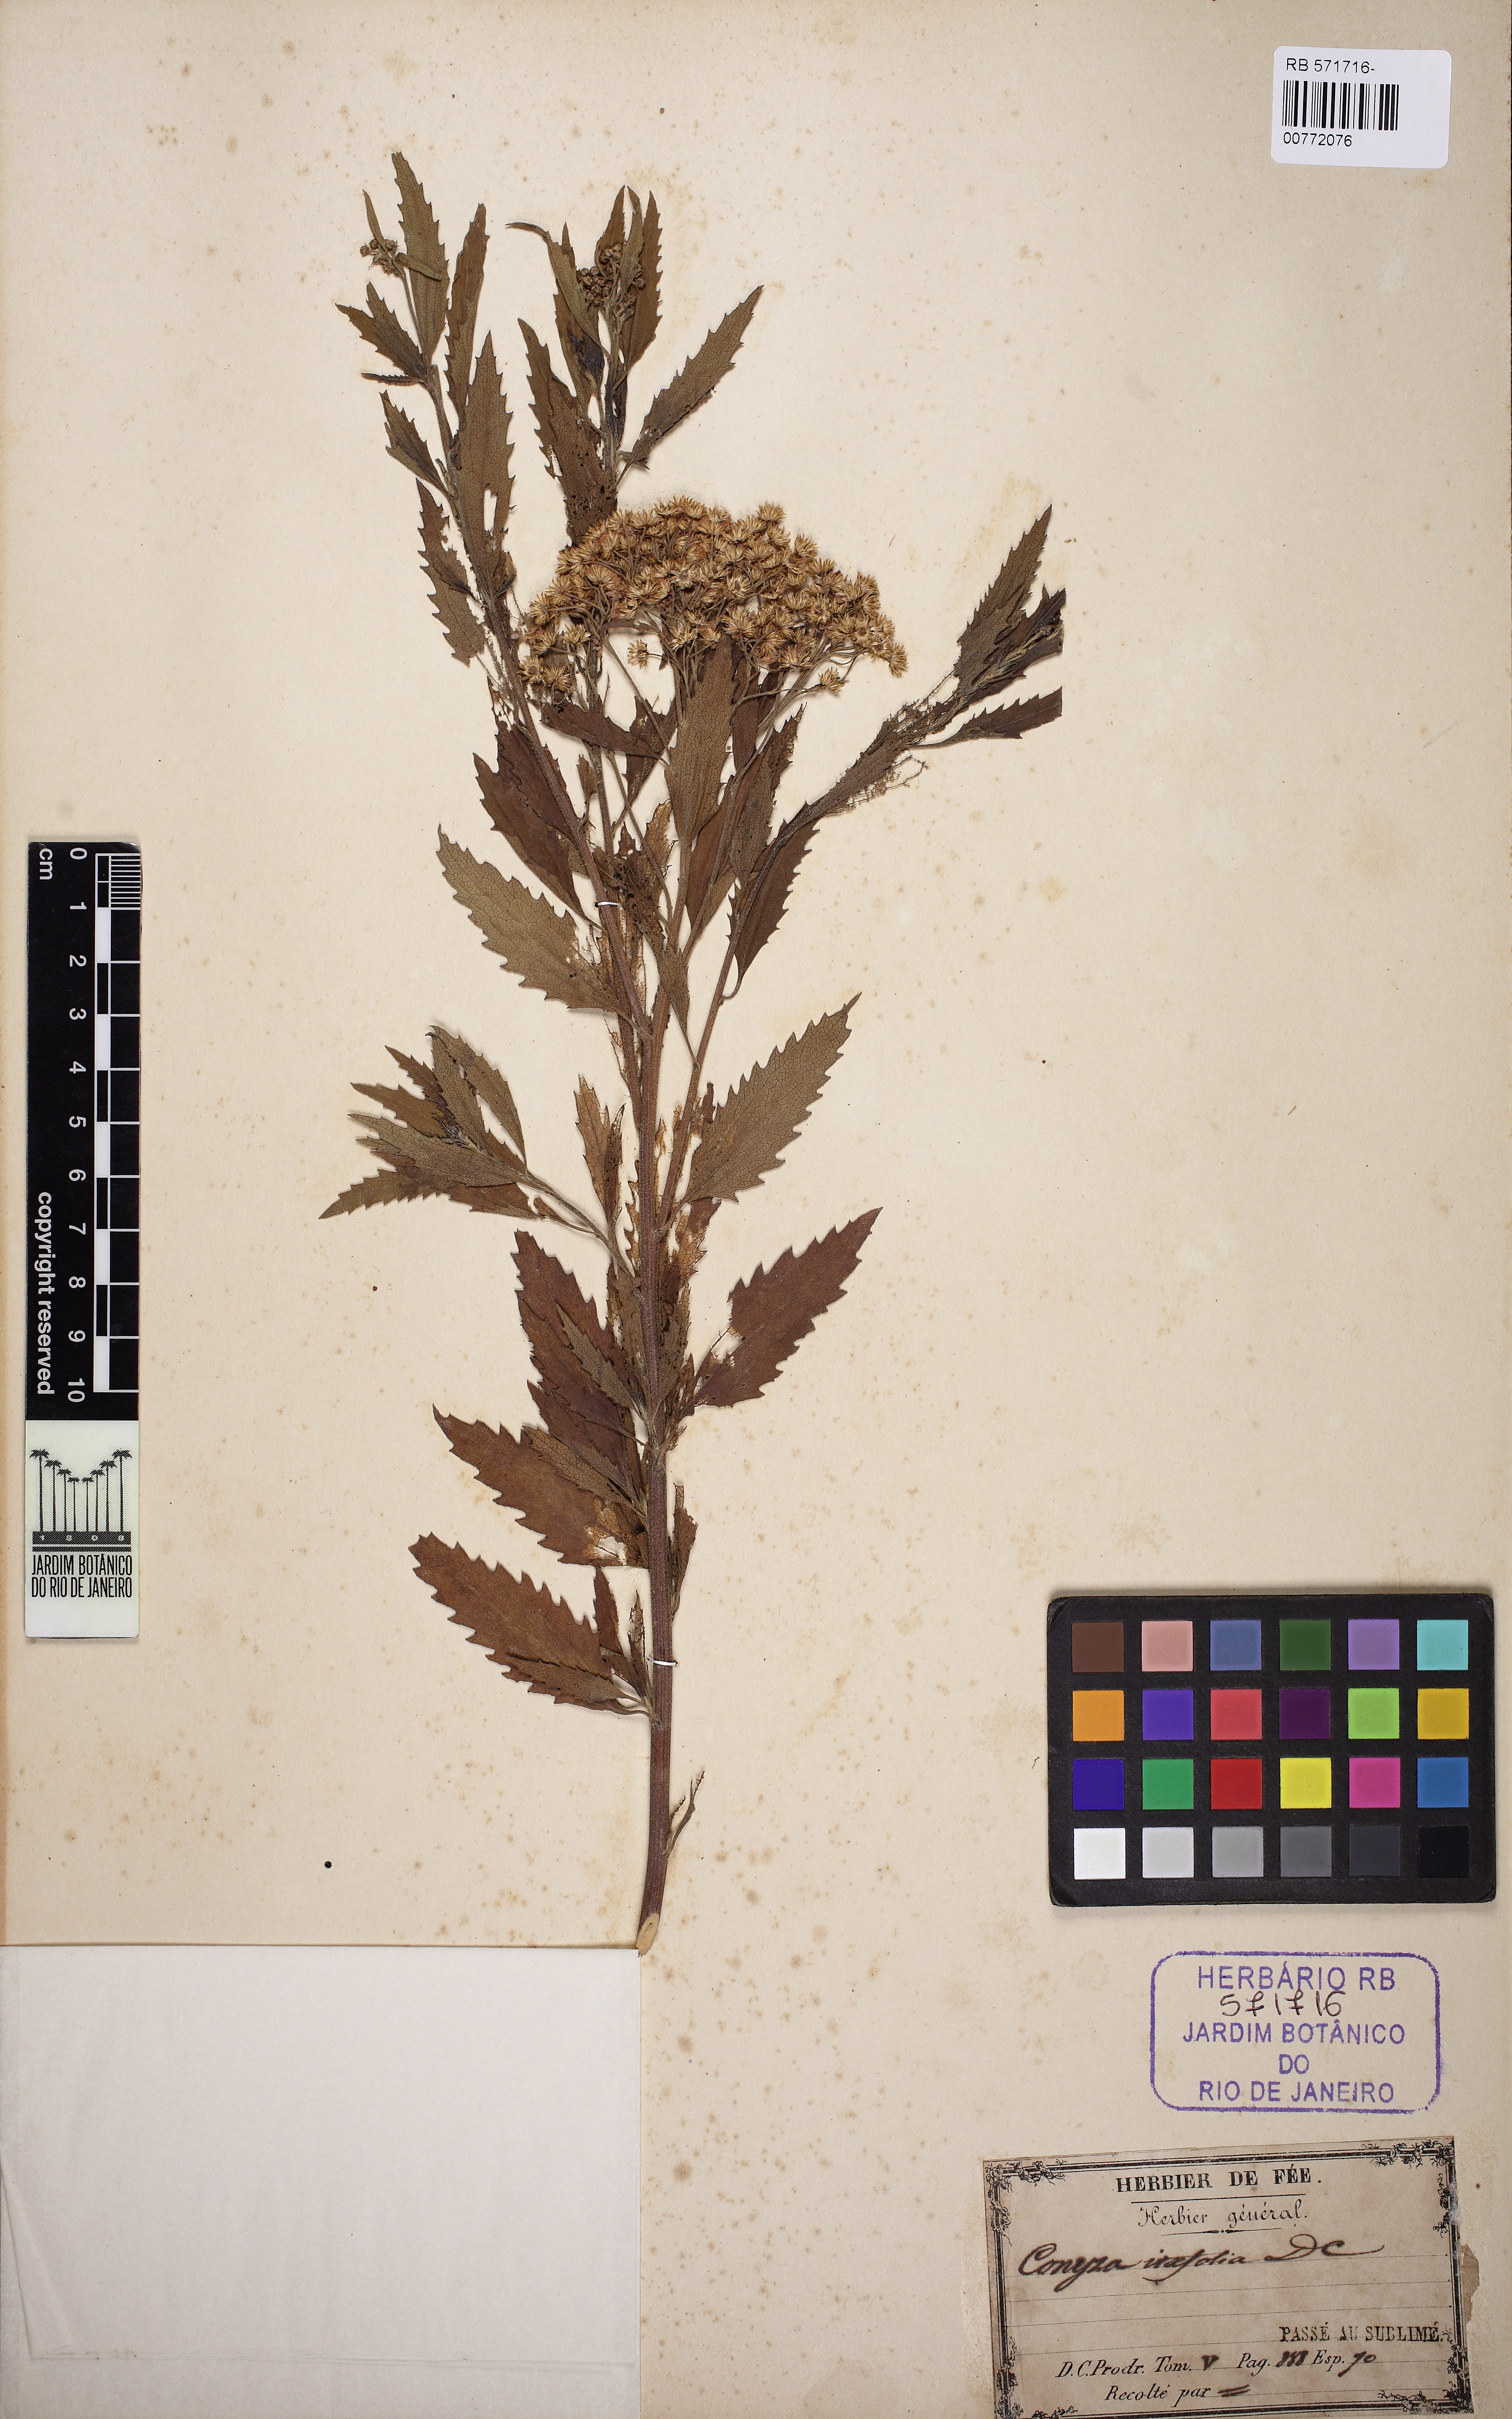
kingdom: Plantae
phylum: Tracheophyta
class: Magnoliopsida
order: Asterales
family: Asteraceae
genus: Cyanthillium
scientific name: Cyanthillium cinereum
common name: Little ironweed
